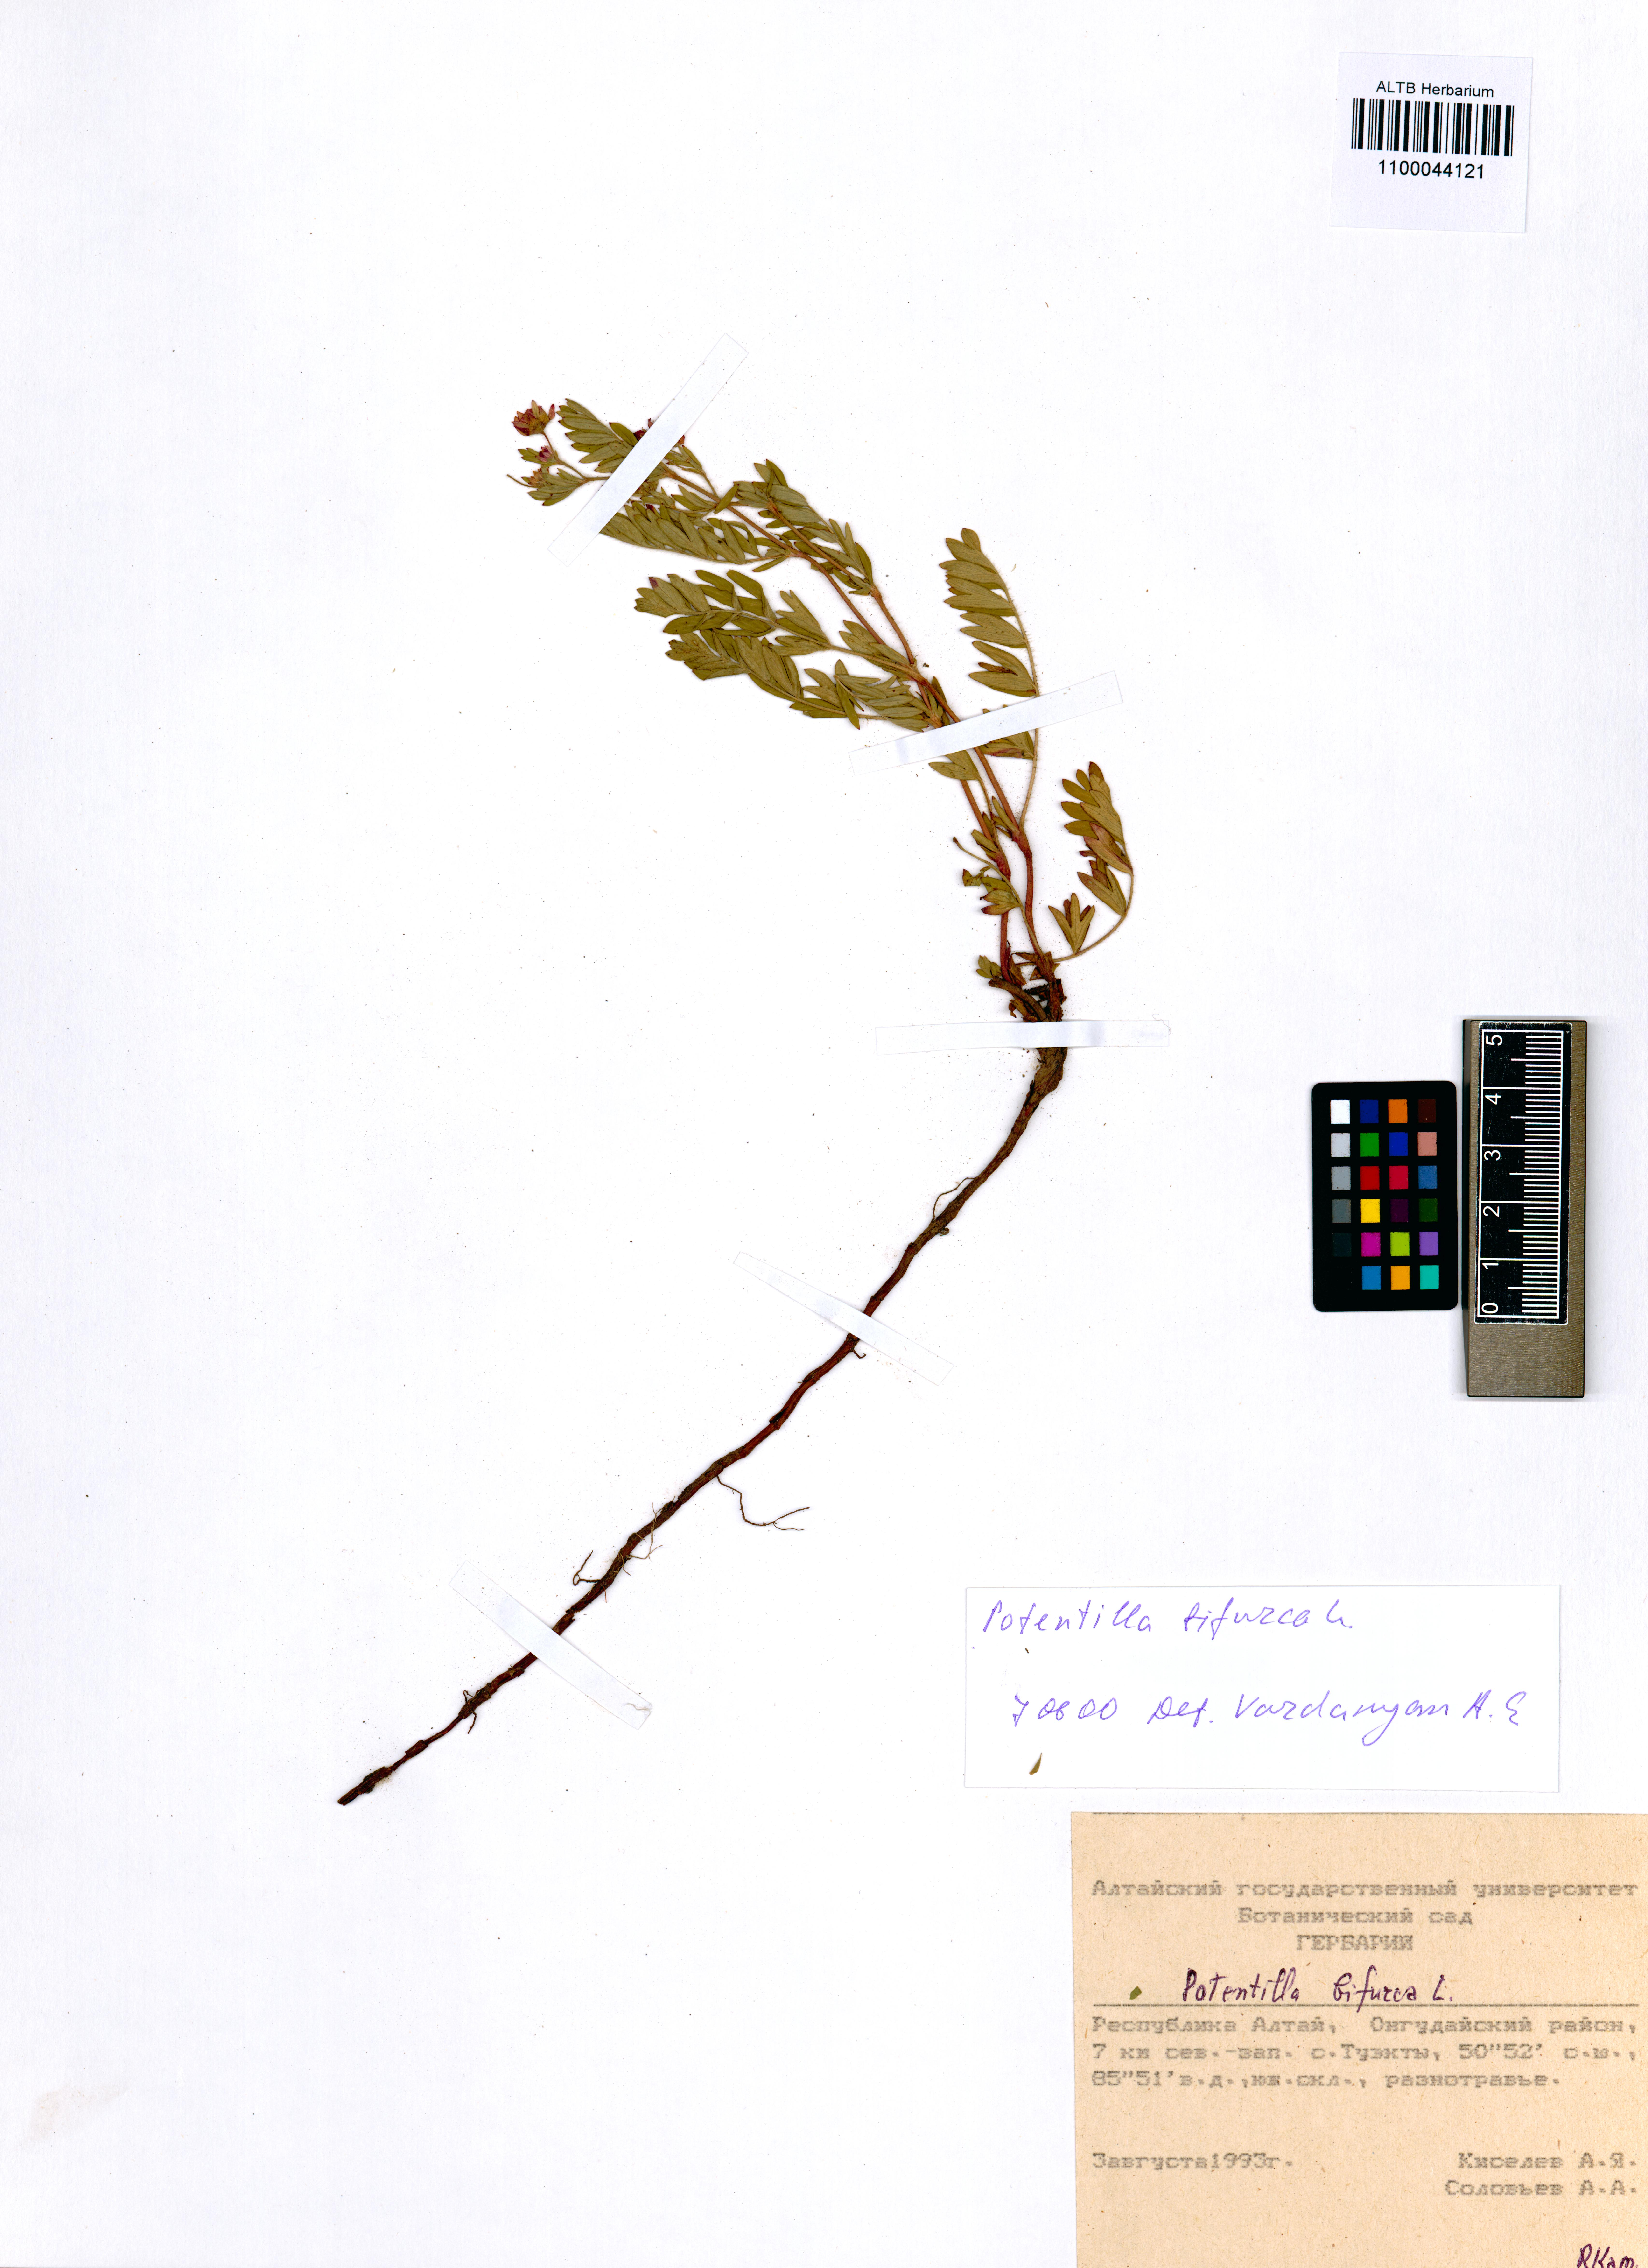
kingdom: Plantae
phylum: Tracheophyta
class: Magnoliopsida
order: Rosales
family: Rosaceae
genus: Sibbaldianthe
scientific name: Sibbaldianthe bifurca
